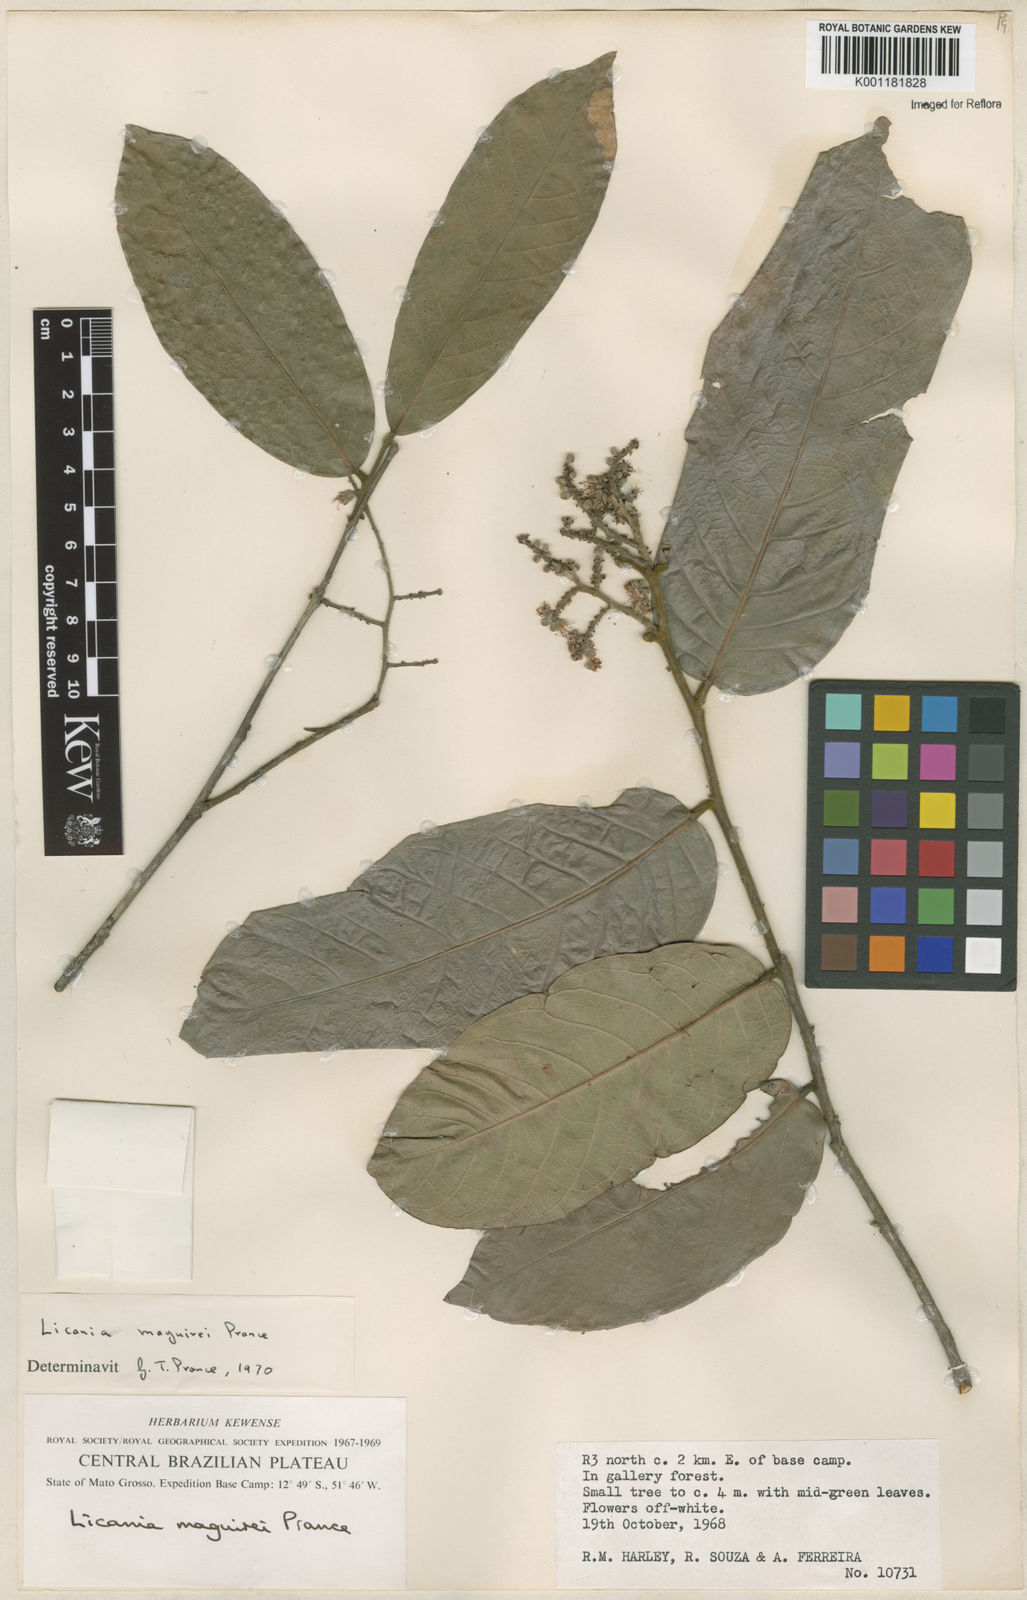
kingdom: Plantae
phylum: Tracheophyta
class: Magnoliopsida
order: Malpighiales
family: Chrysobalanaceae
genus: Leptobalanus
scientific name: Leptobalanus maguirei
